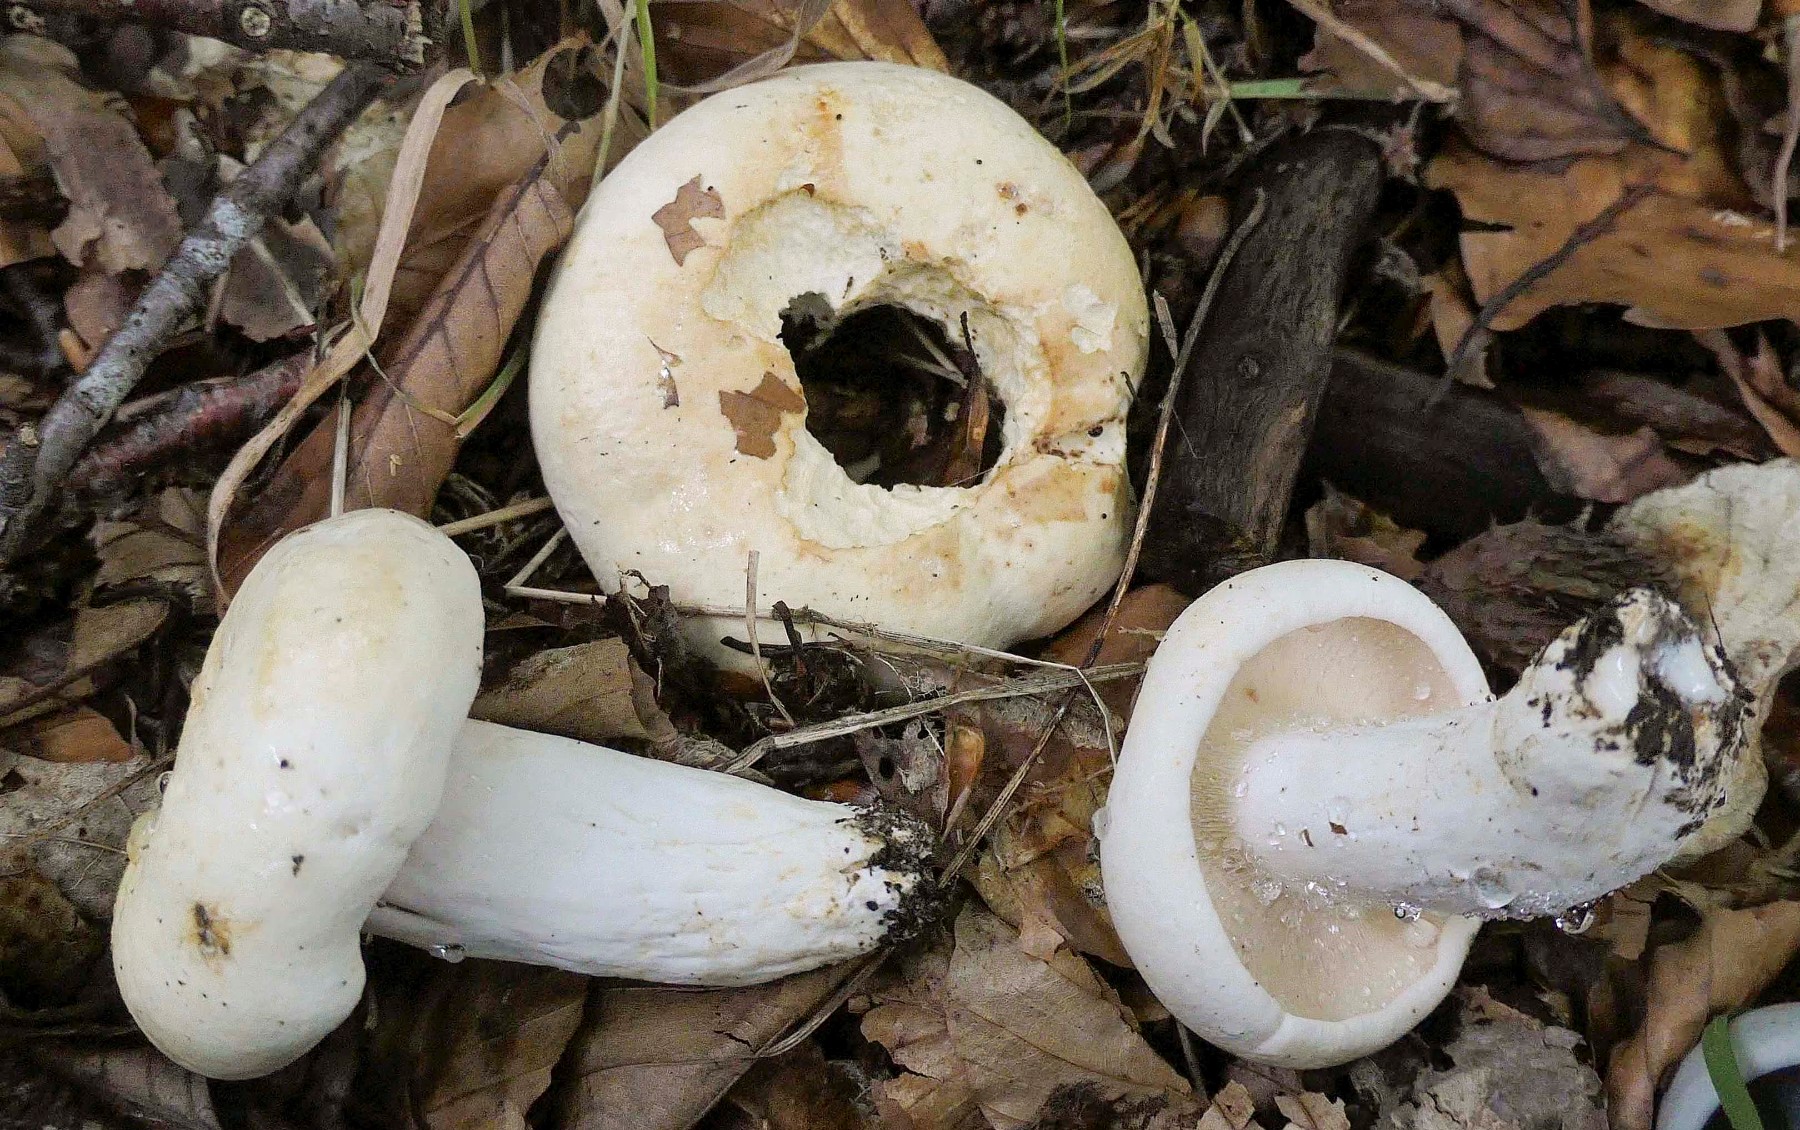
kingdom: Fungi
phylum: Basidiomycota
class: Agaricomycetes
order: Russulales
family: Russulaceae
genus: Lactifluus
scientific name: Lactifluus piperatus
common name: peber-mælkehat
